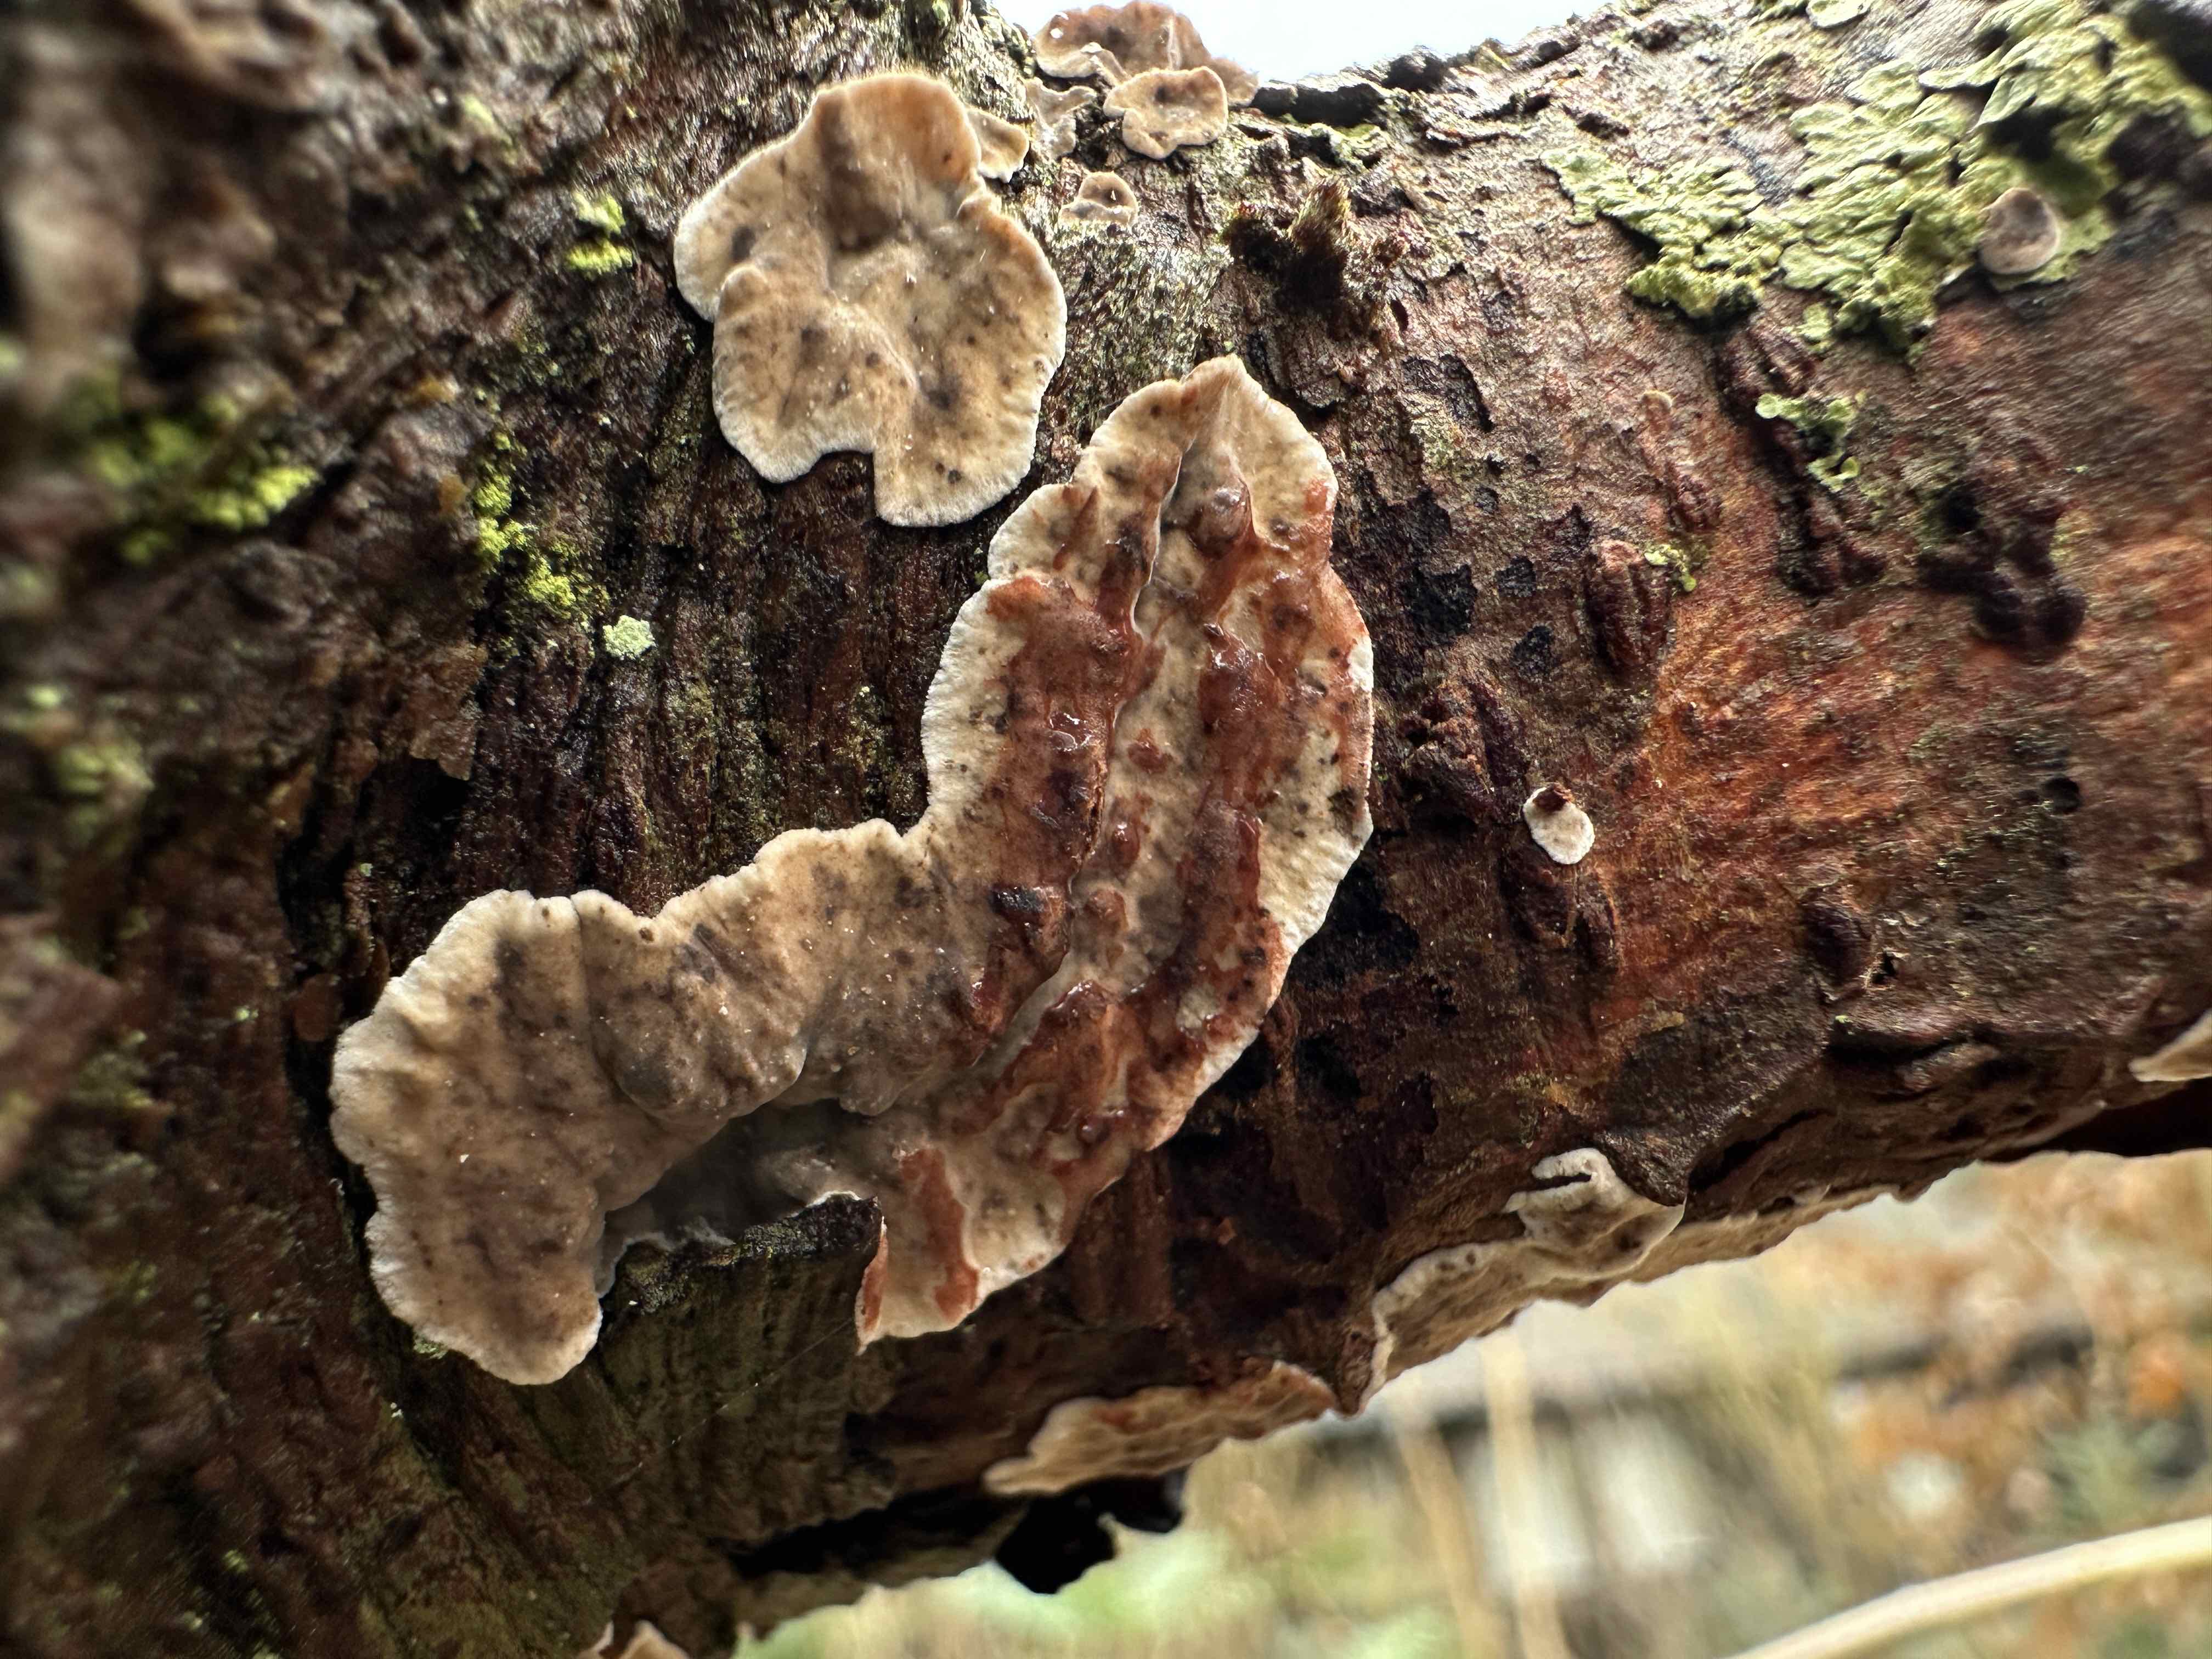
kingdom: Fungi
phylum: Basidiomycota
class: Agaricomycetes
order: Russulales
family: Stereaceae
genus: Stereum
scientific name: Stereum sanguinolentum
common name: blødende lædersvamp
